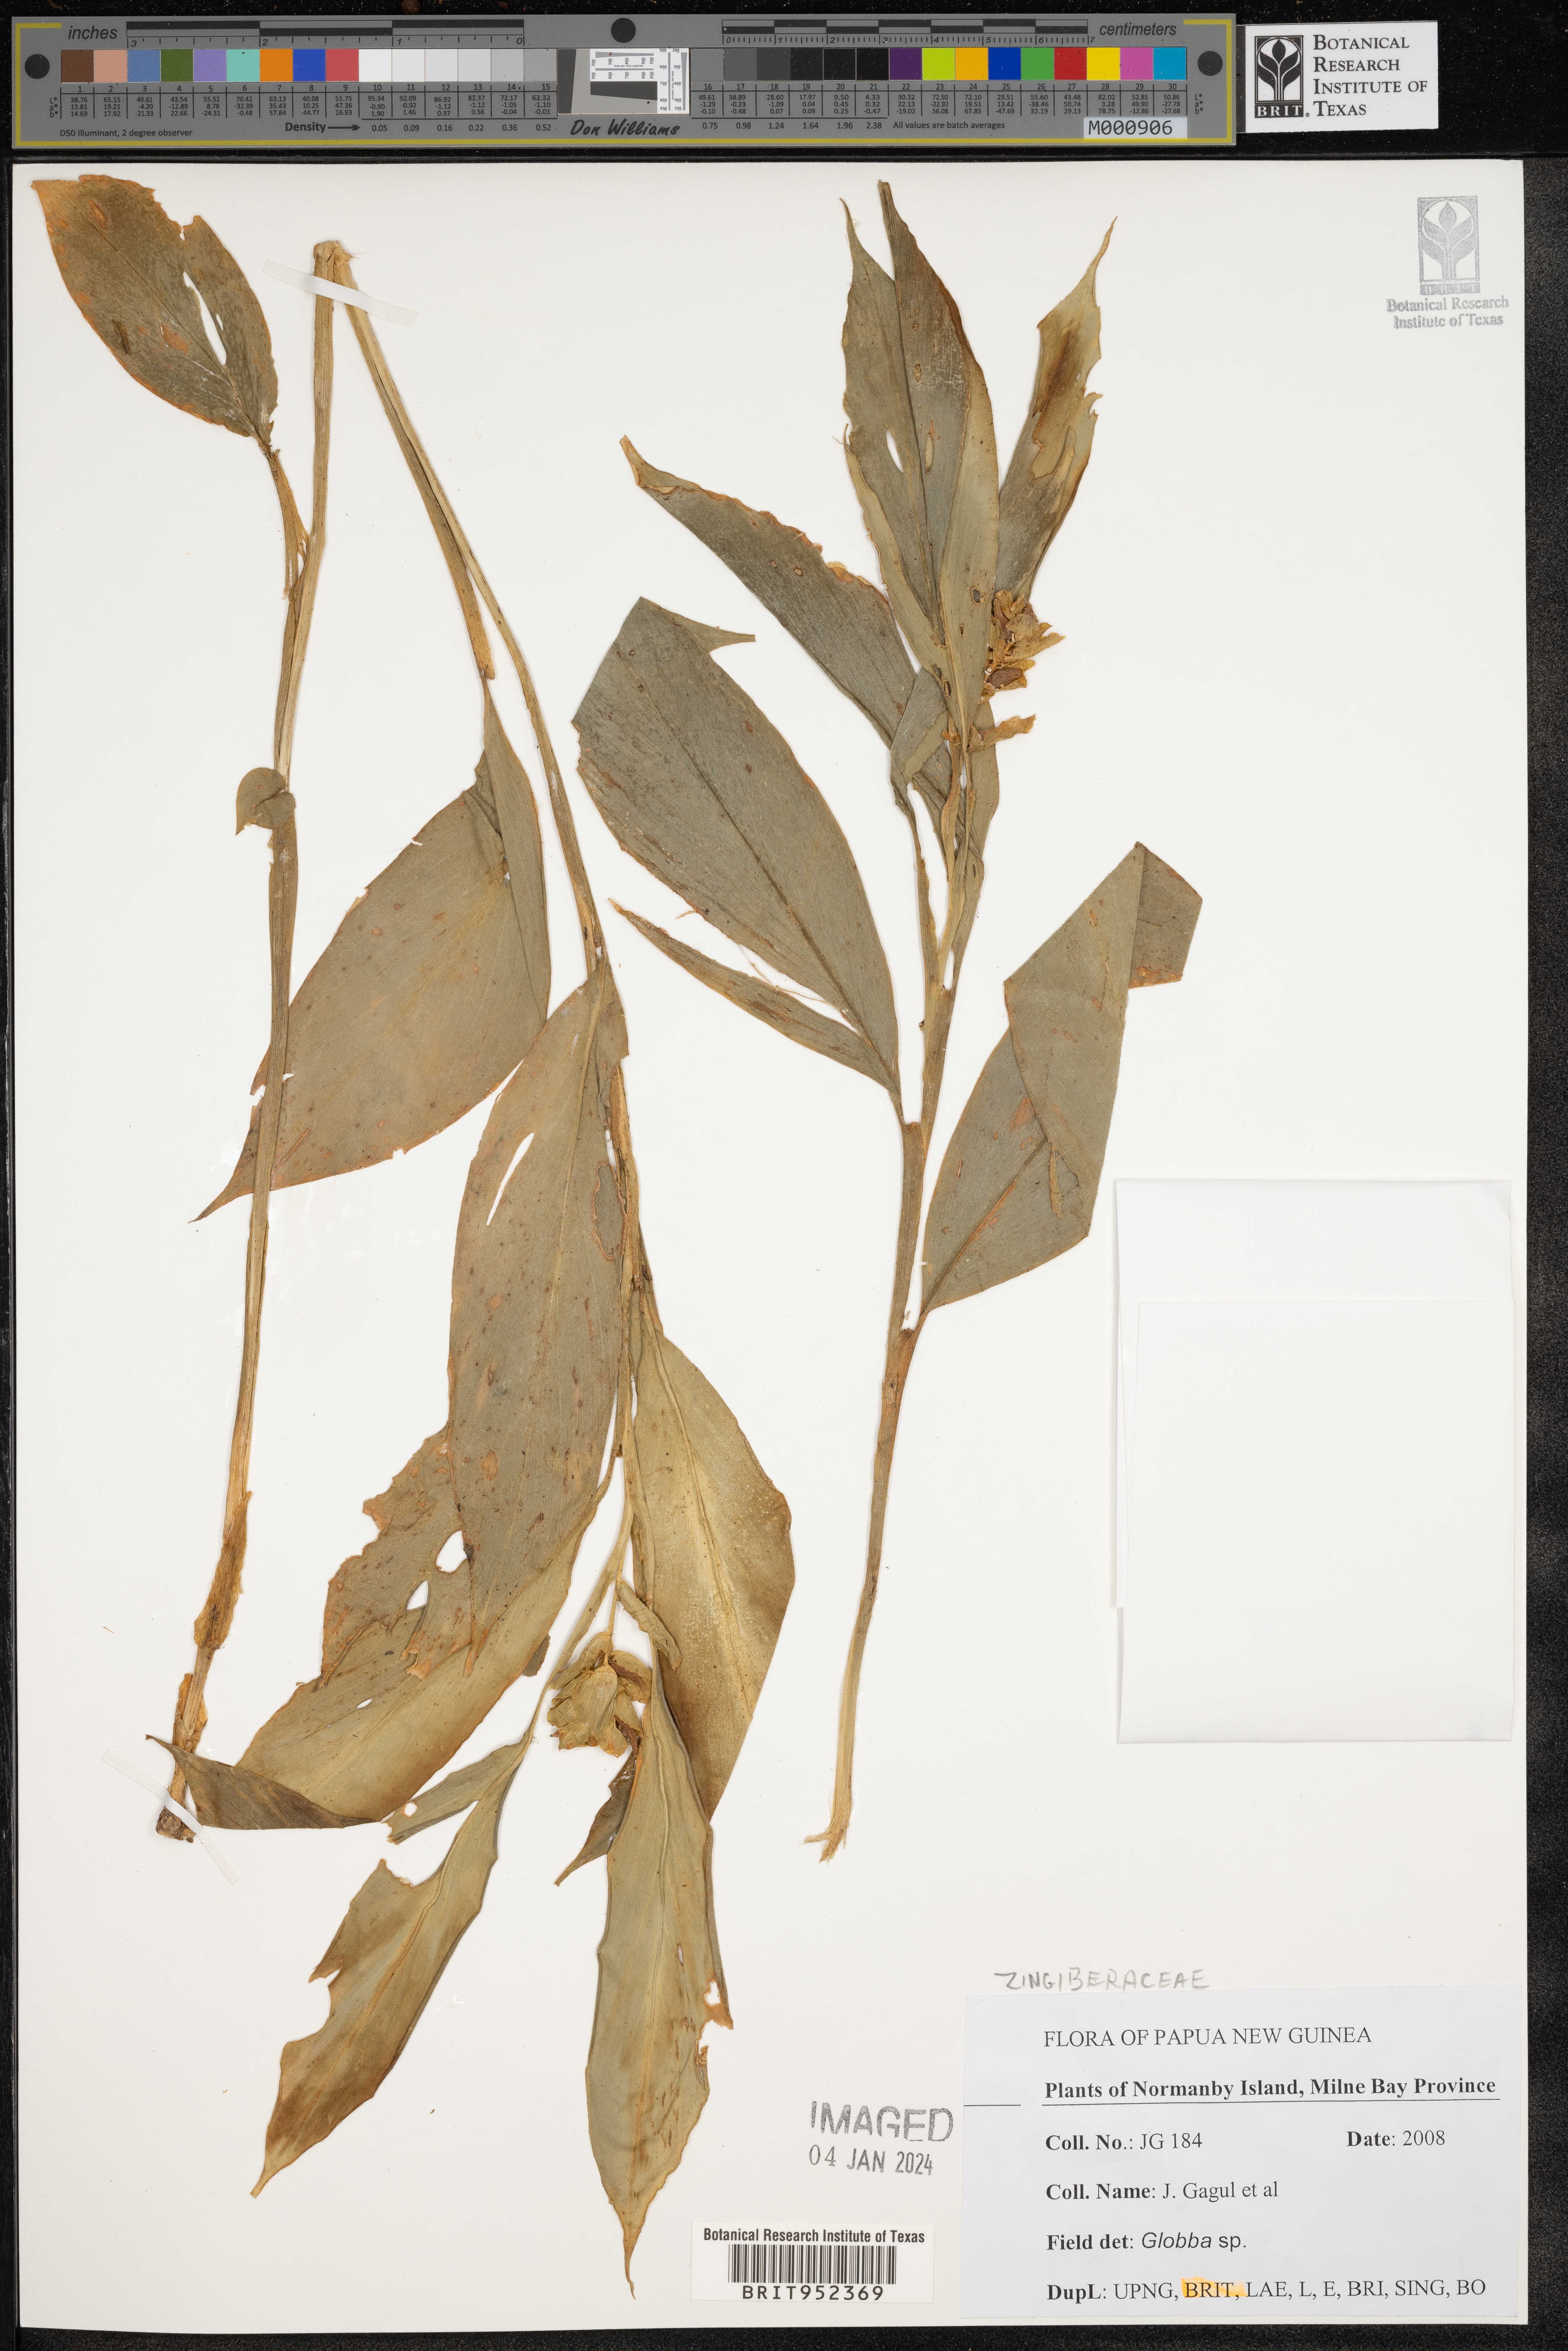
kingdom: Plantae
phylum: Tracheophyta
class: Liliopsida
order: Zingiberales
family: Zingiberaceae
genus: Globba
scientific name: Globba
